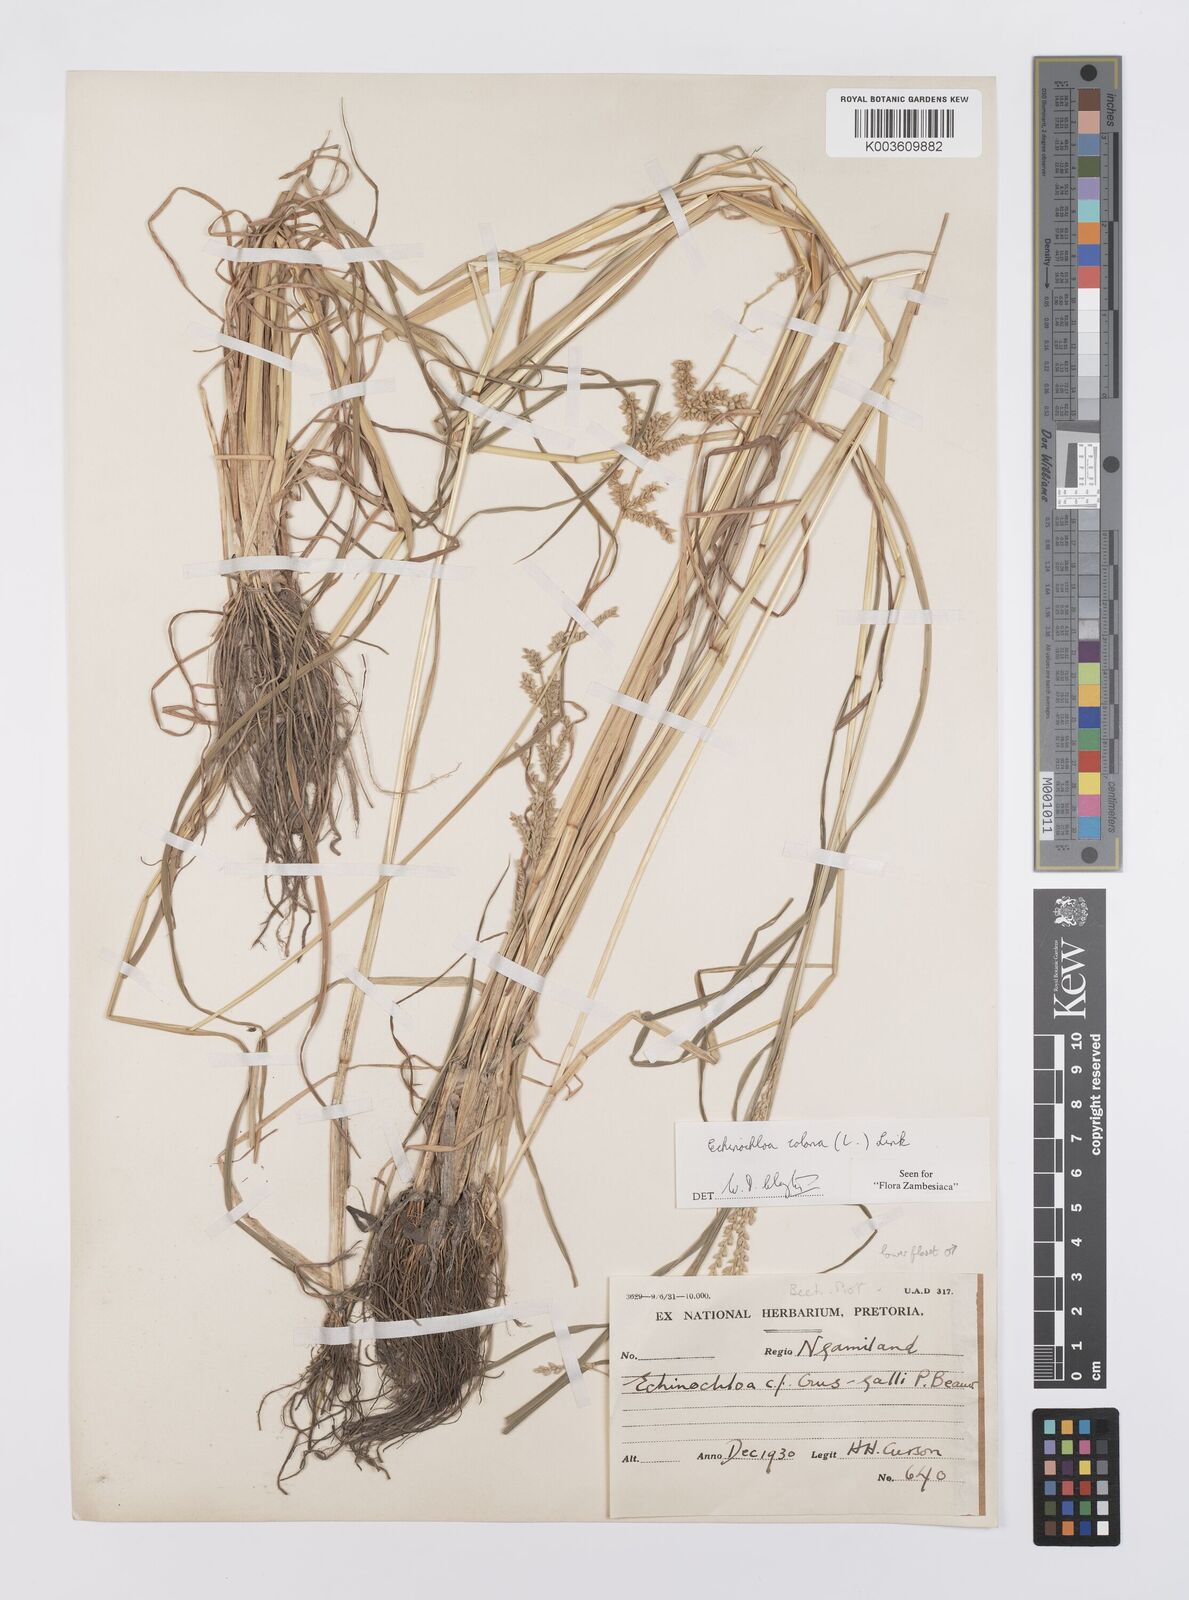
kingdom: Plantae
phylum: Tracheophyta
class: Liliopsida
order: Poales
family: Poaceae
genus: Echinochloa
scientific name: Echinochloa colonum
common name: Jungle rice
